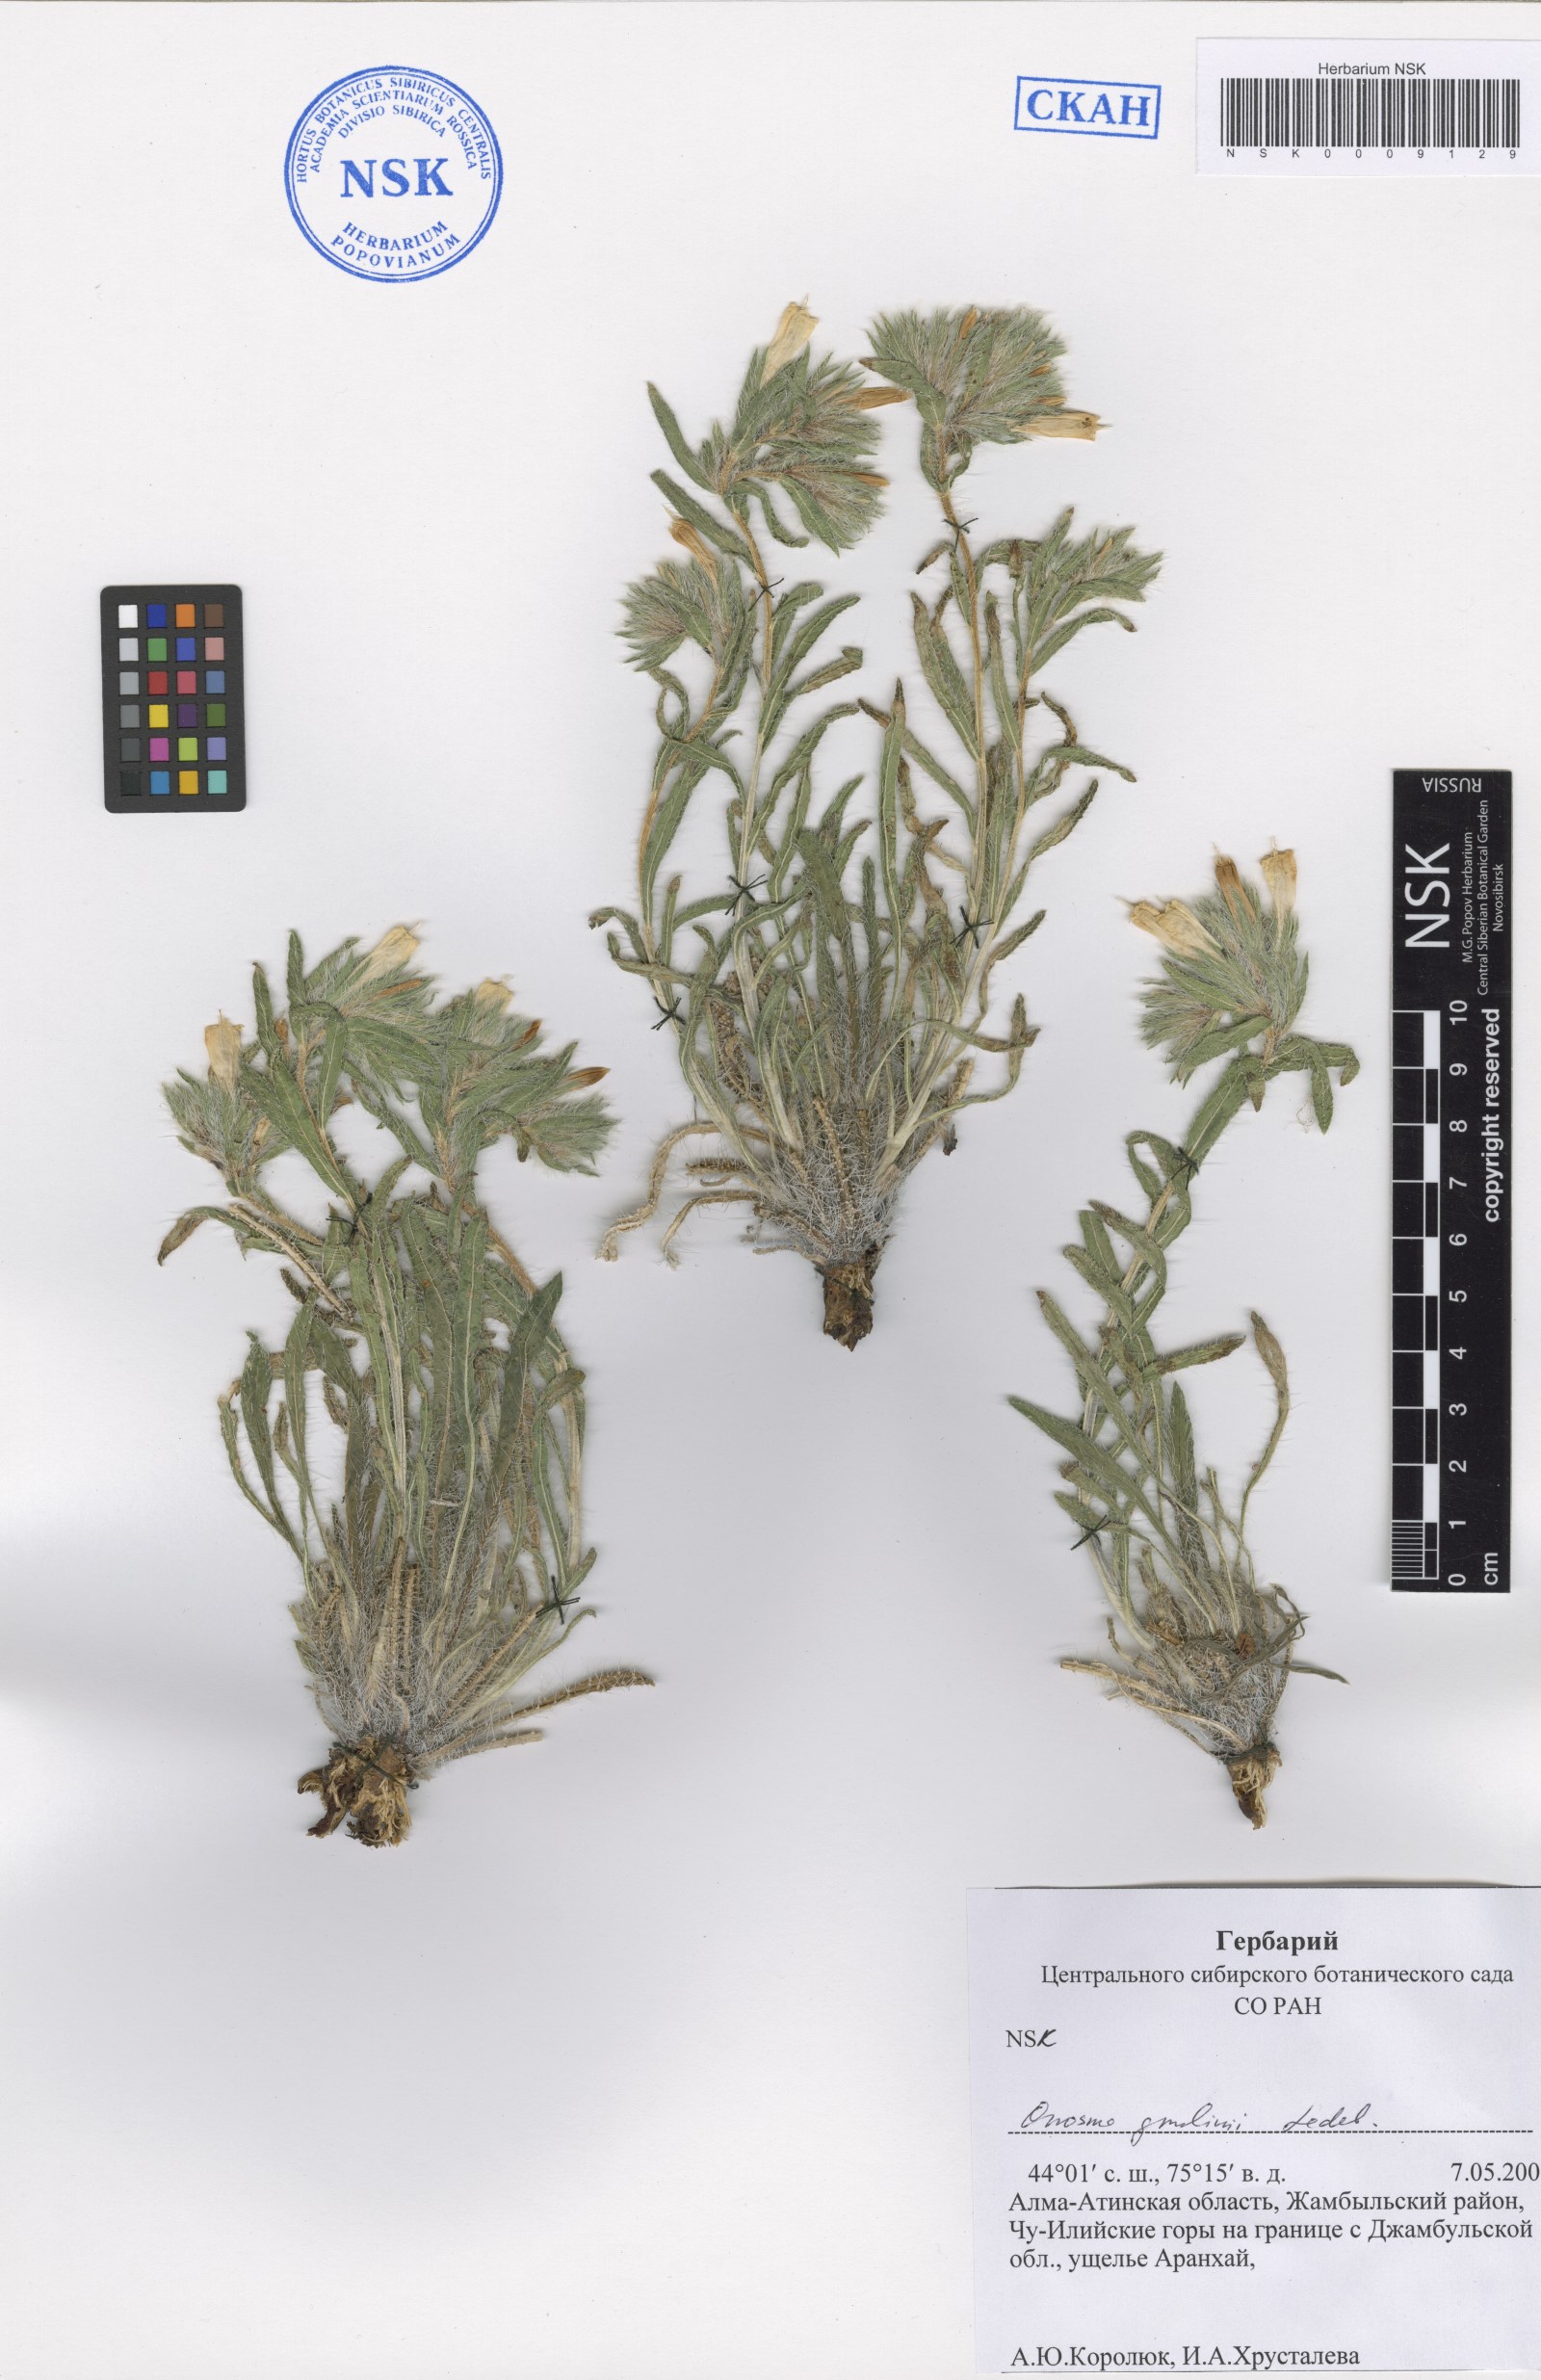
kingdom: Plantae
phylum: Tracheophyta
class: Magnoliopsida
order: Boraginales
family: Boraginaceae
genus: Onosma
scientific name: Onosma gmelinii
